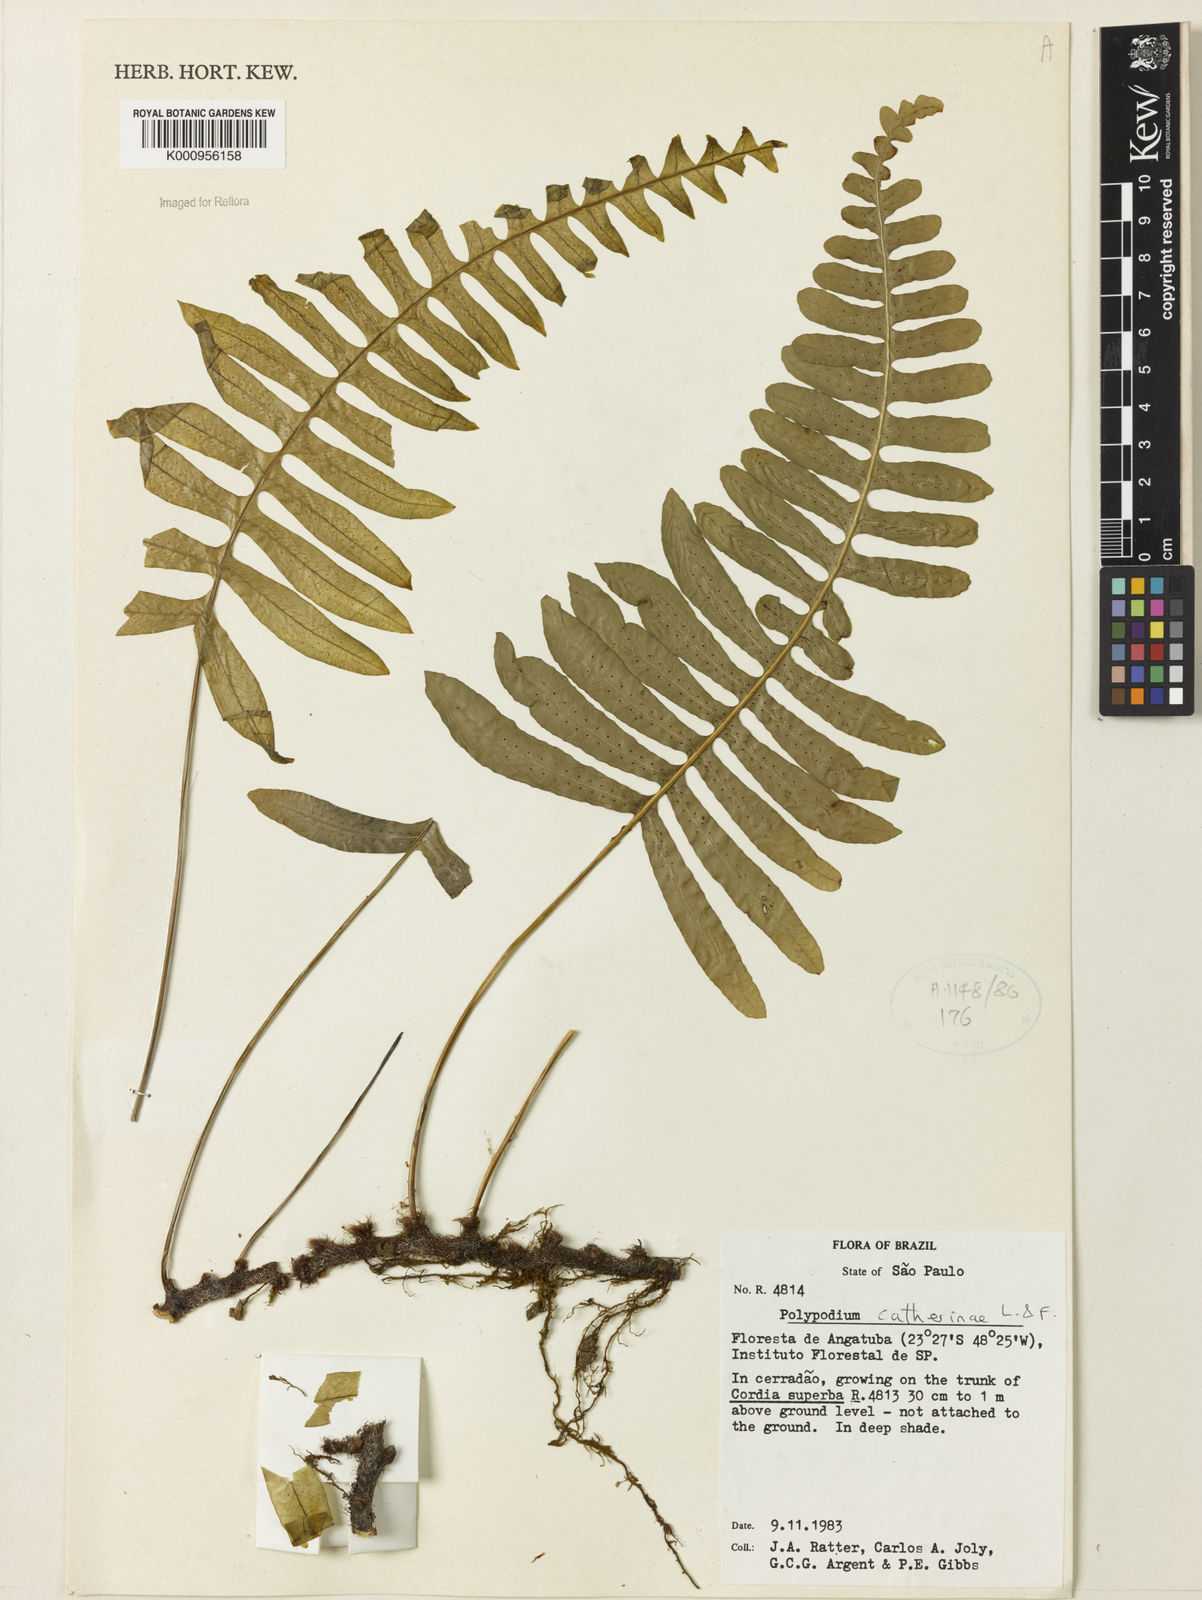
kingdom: Plantae
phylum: Tracheophyta
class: Polypodiopsida
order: Polypodiales
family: Polypodiaceae
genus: Serpocaulon
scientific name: Serpocaulon catharinae
